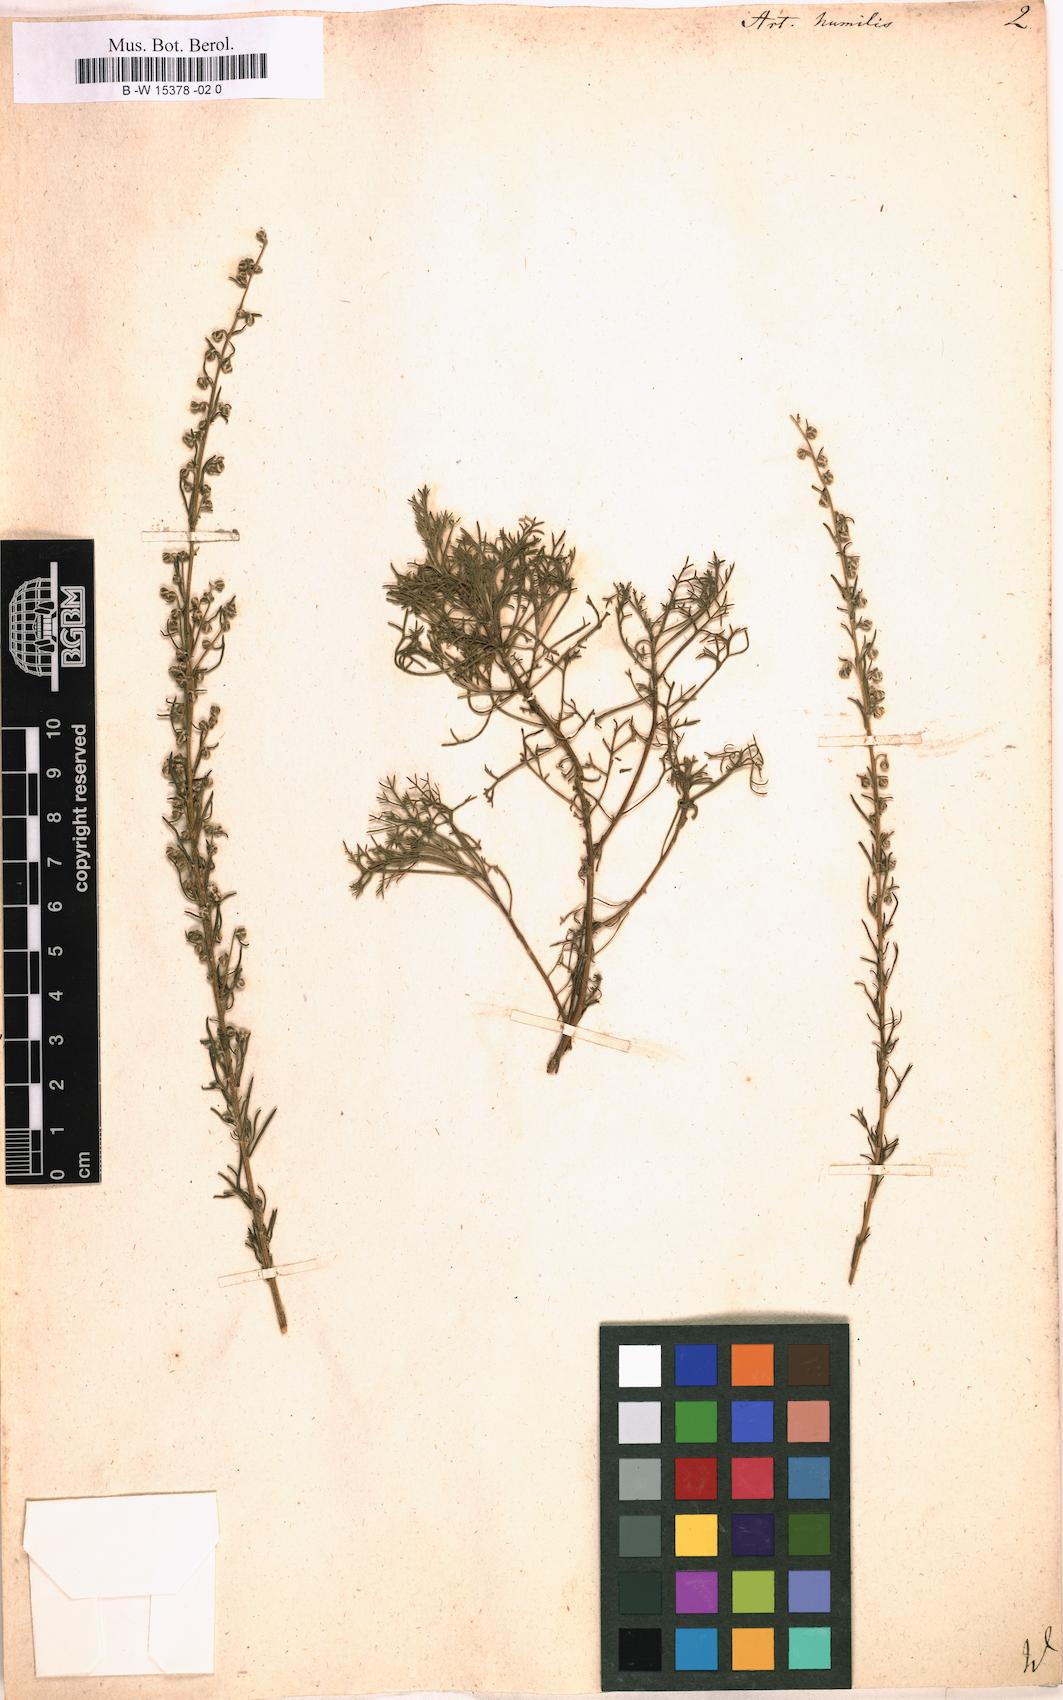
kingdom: Plantae
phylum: Tracheophyta
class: Magnoliopsida
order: Asterales
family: Asteraceae
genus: Artemisia
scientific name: Artemisia abrotanum
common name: Southernwood
